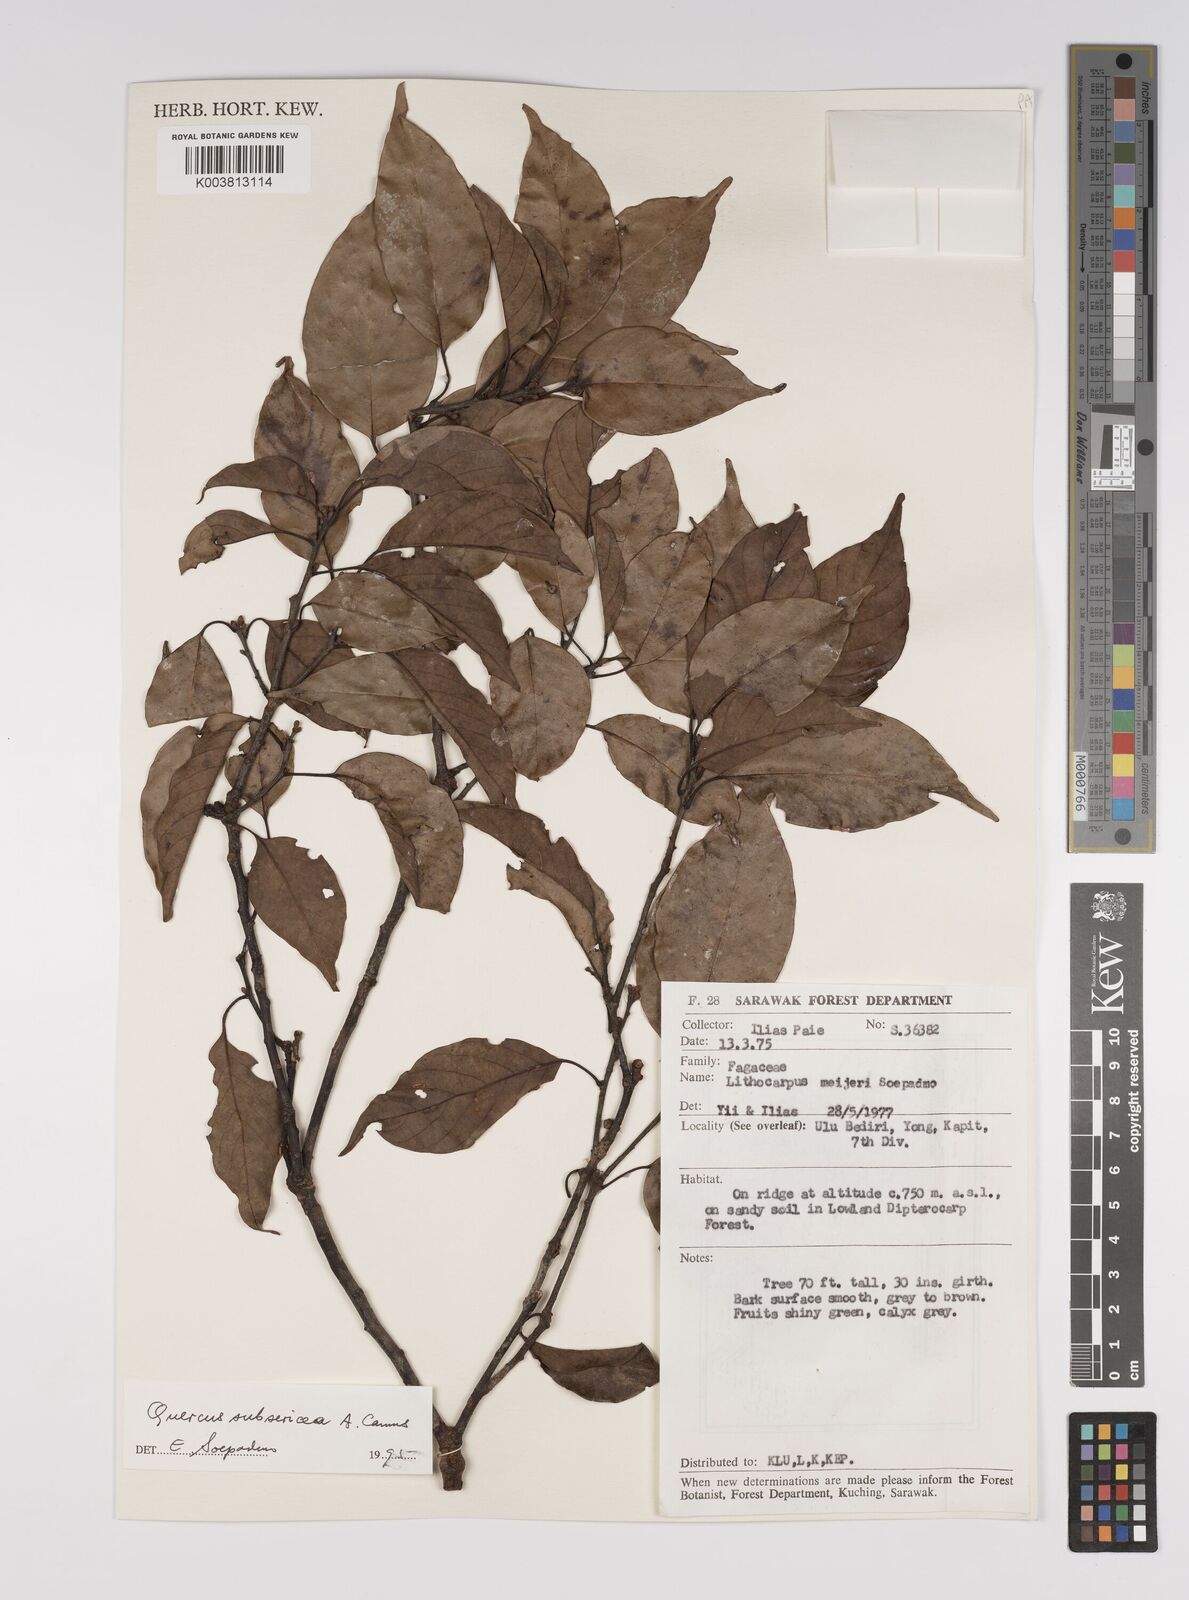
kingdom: Plantae
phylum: Tracheophyta
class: Magnoliopsida
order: Fagales
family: Fagaceae
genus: Quercus
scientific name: Quercus subsericea
